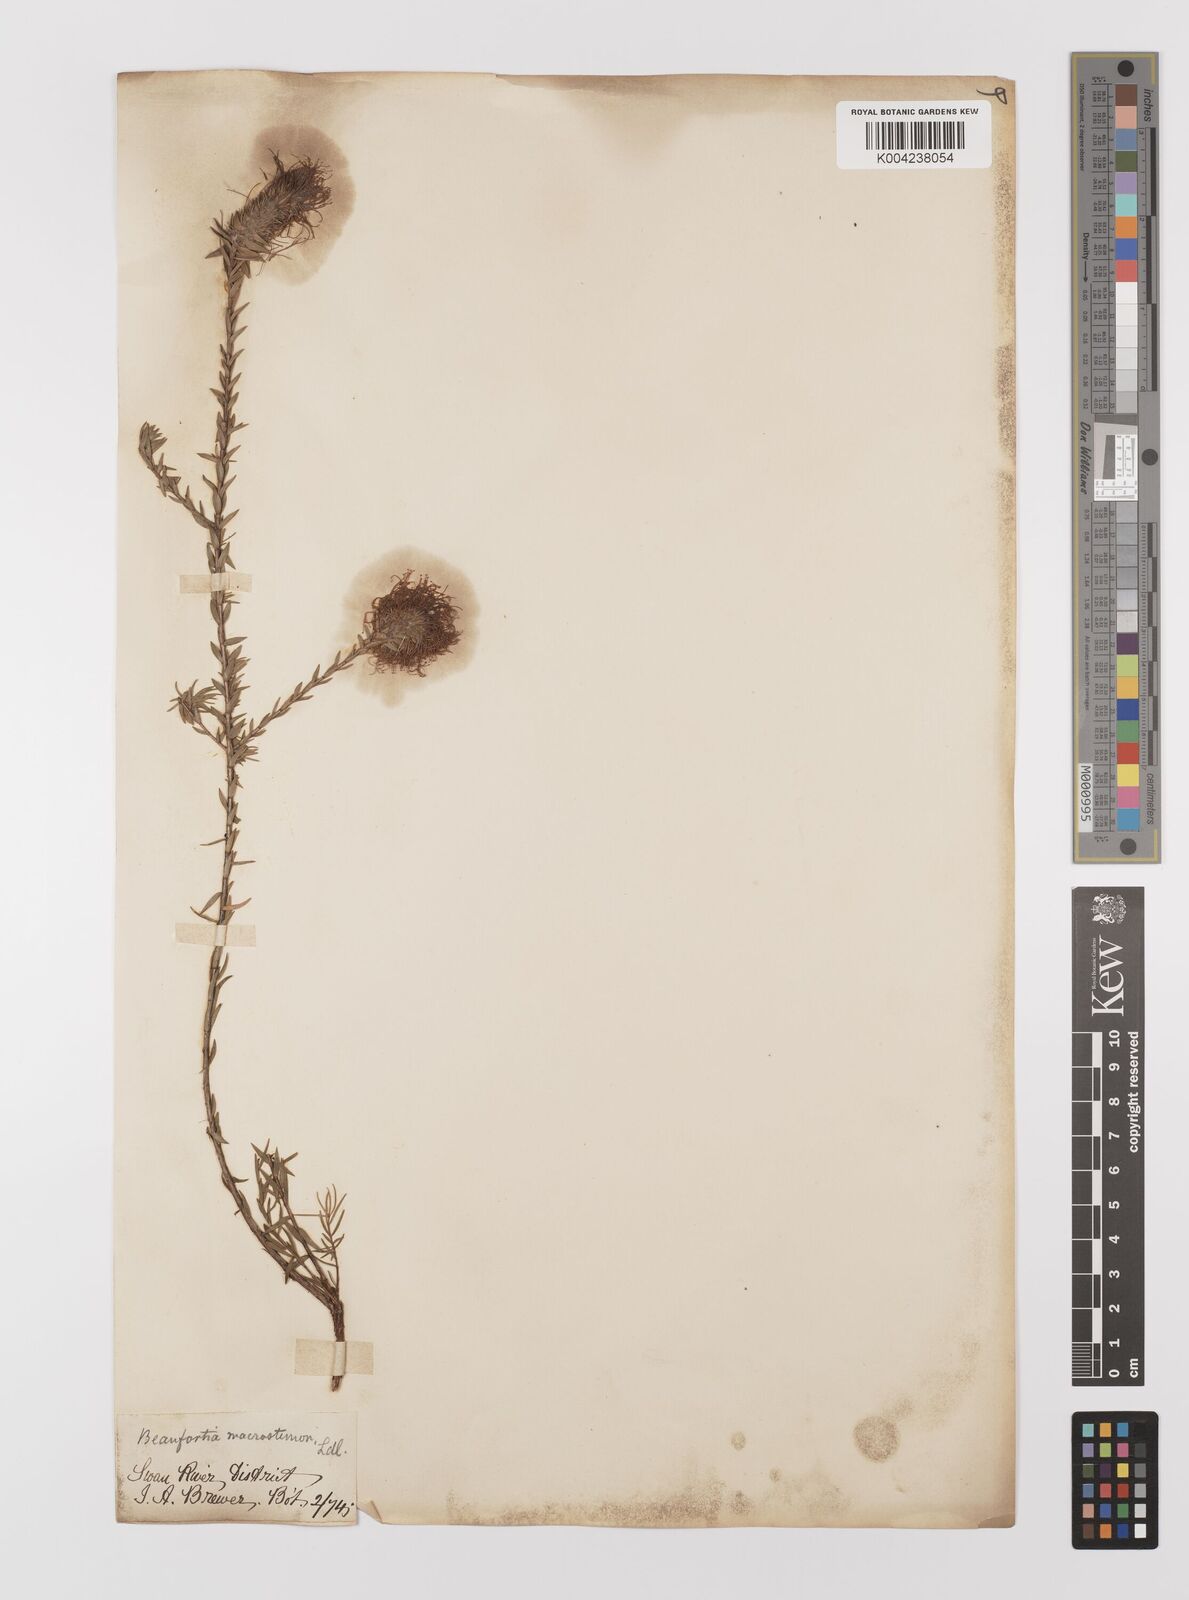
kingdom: Plantae
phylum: Tracheophyta
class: Magnoliopsida
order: Myrtales
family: Myrtaceae
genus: Melaleuca
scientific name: Melaleuca macrostemon
